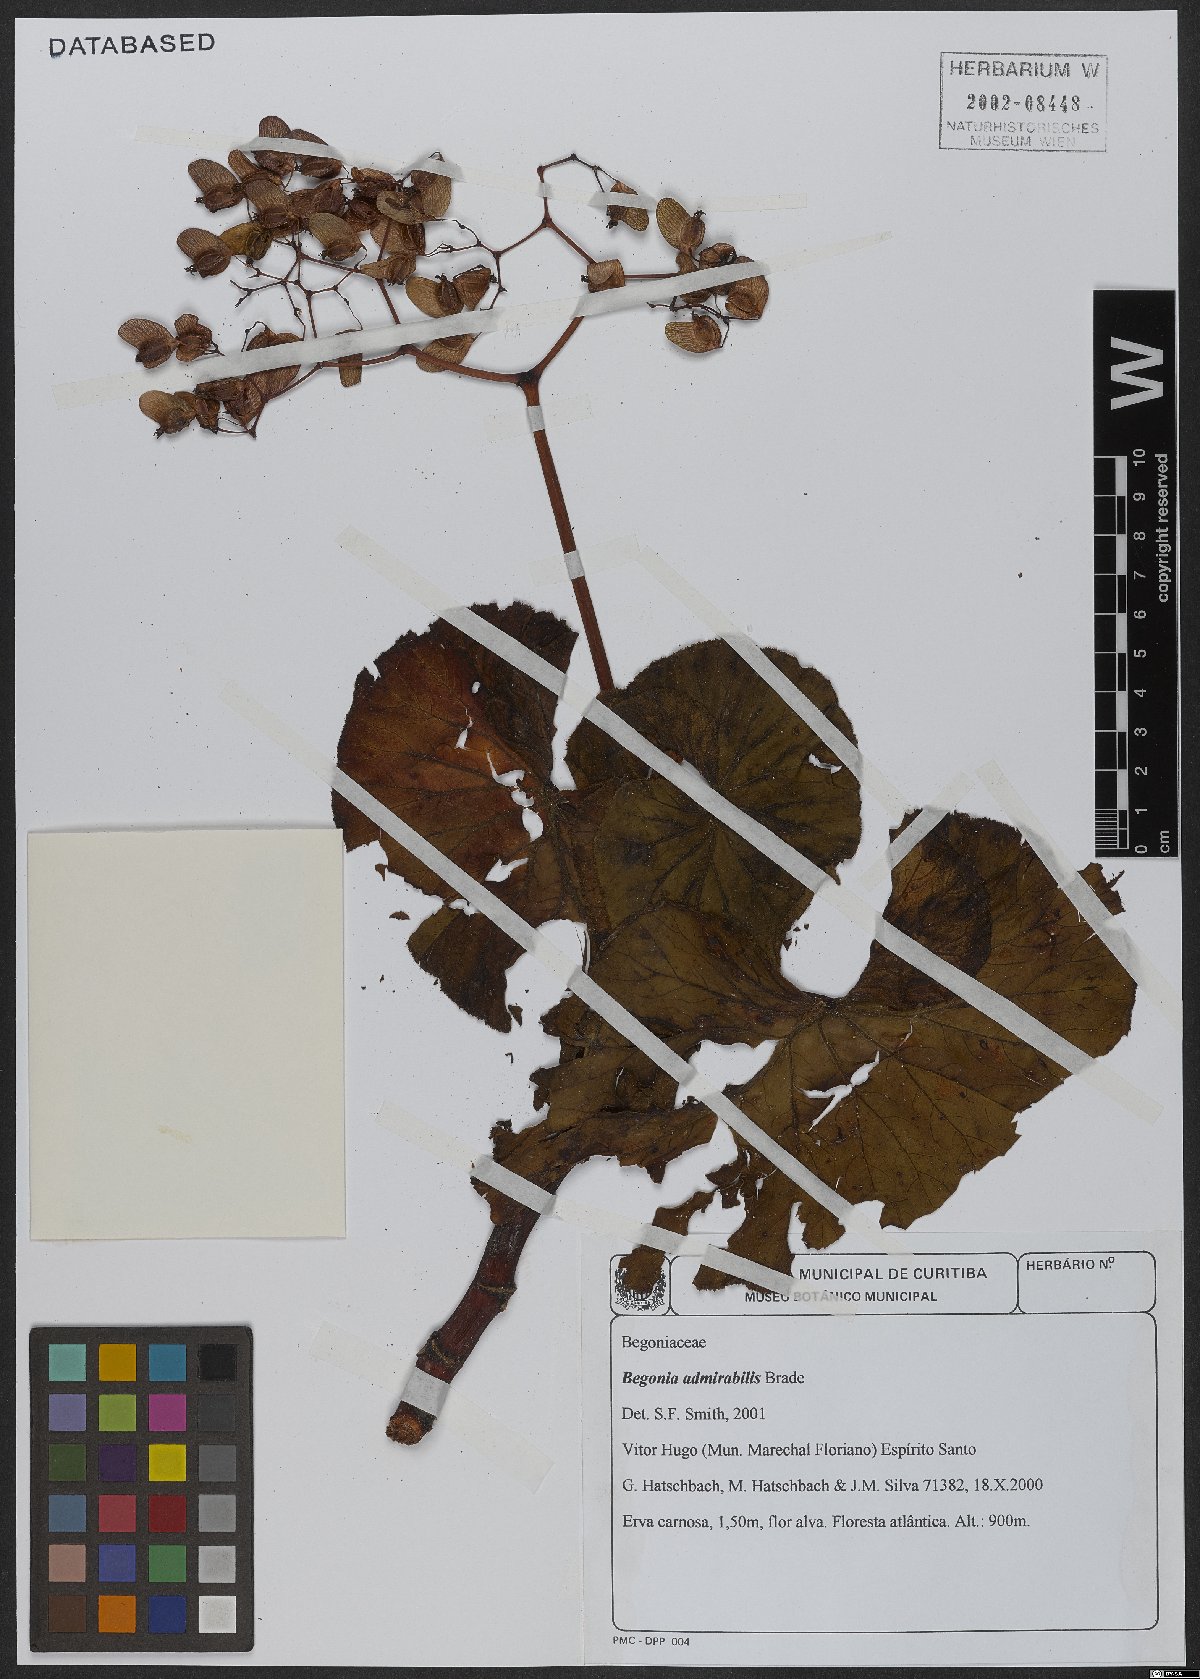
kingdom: Plantae
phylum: Tracheophyta
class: Magnoliopsida
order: Cucurbitales
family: Begoniaceae
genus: Begonia
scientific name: Begonia admirabilis
